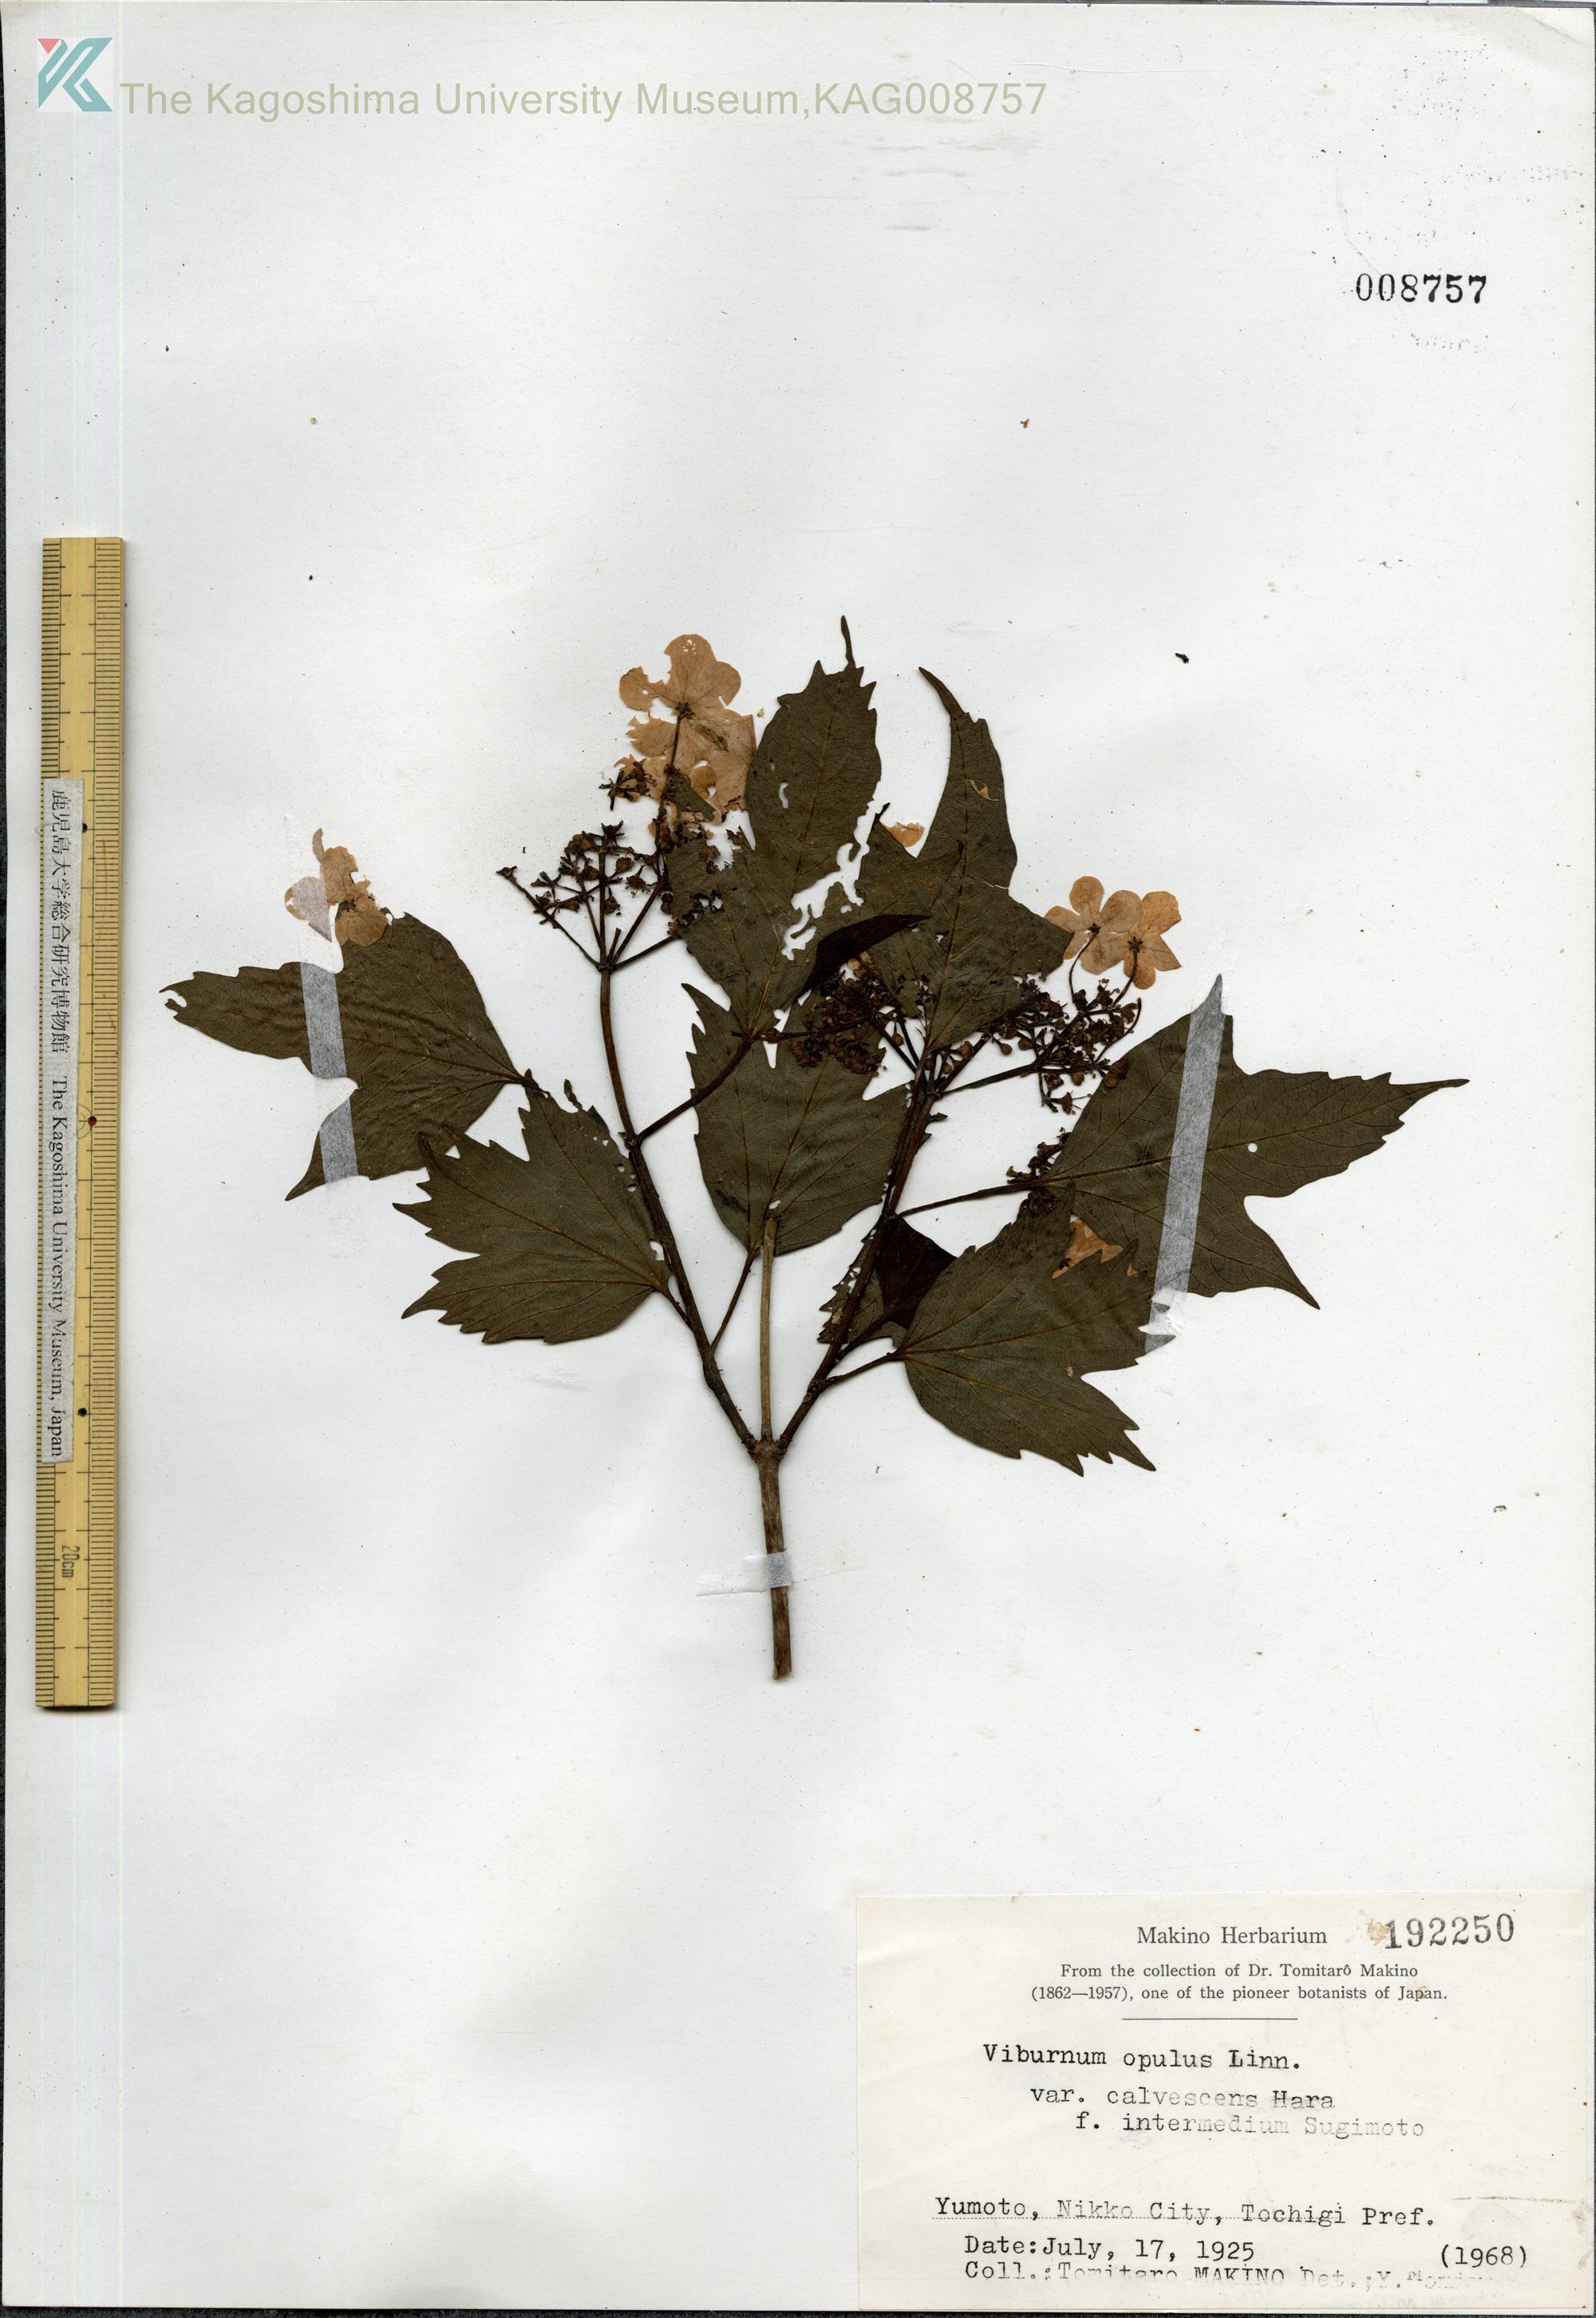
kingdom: Plantae
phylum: Tracheophyta
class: Magnoliopsida
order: Dipsacales
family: Viburnaceae
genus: Viburnum
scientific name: Viburnum opulus
